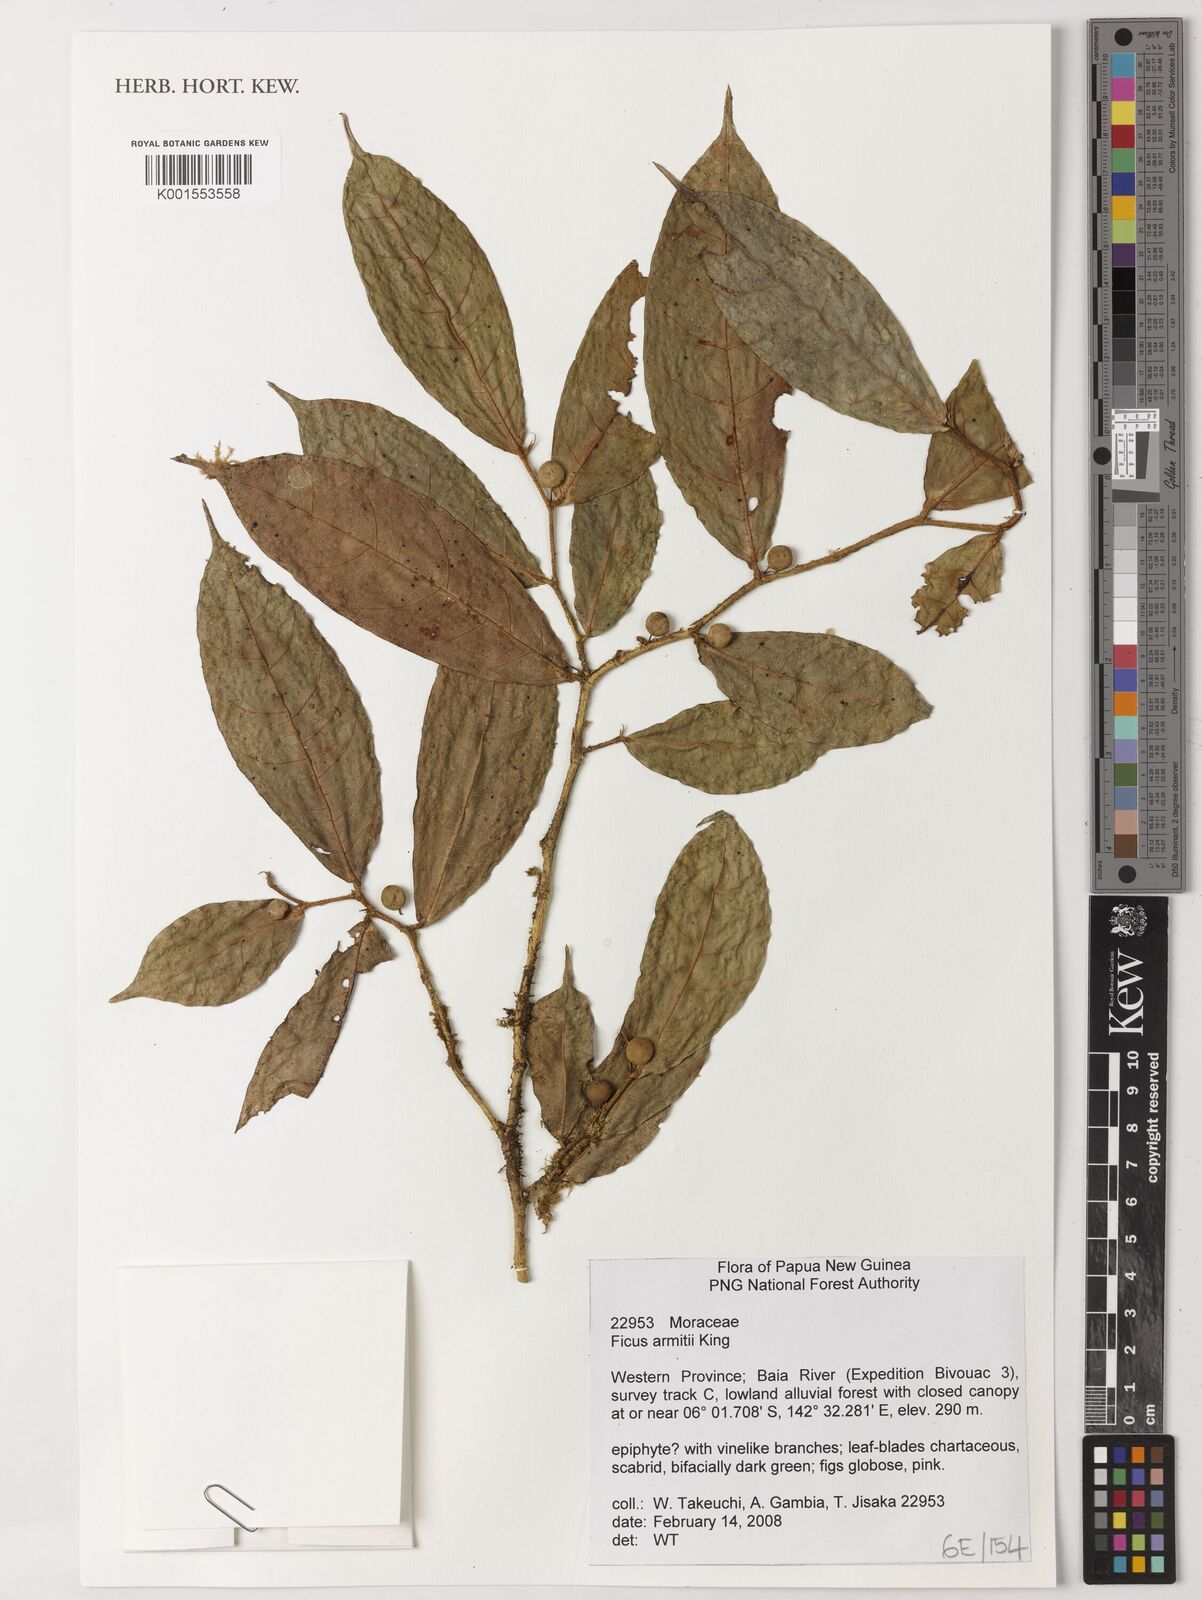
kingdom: Plantae
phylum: Tracheophyta
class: Magnoliopsida
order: Rosales
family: Moraceae
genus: Ficus
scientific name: Ficus armitii
